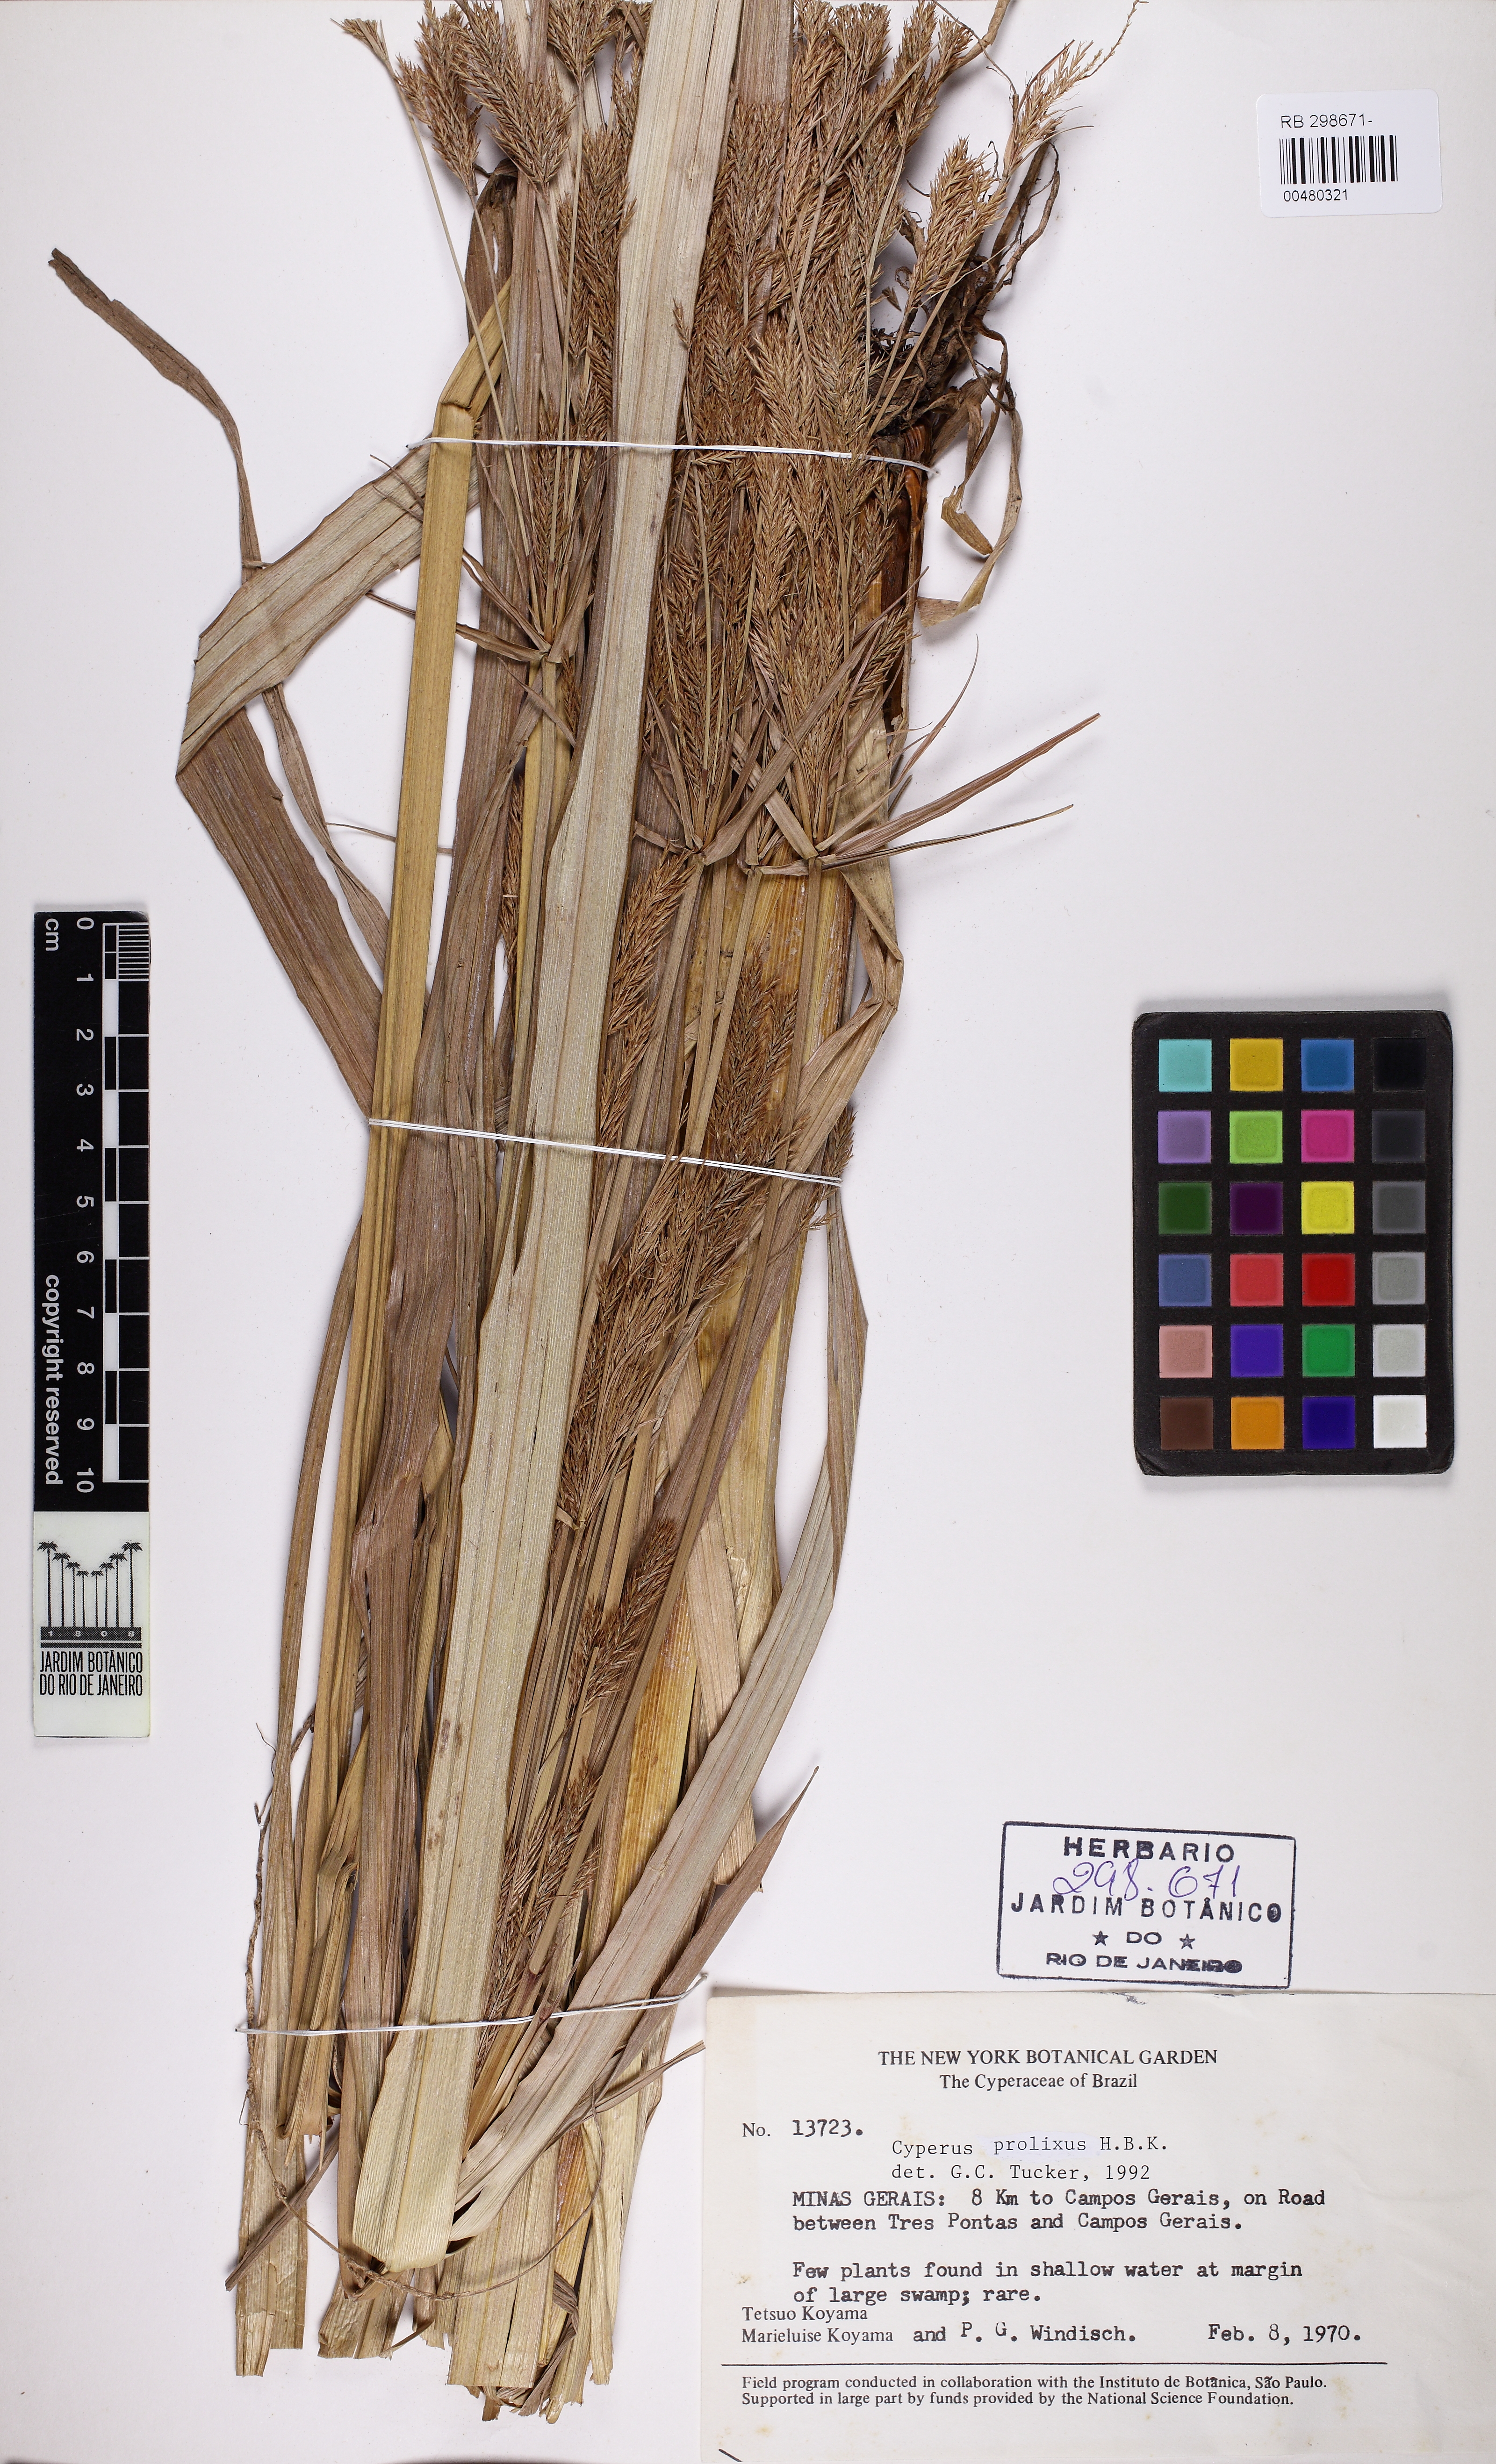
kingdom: Plantae
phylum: Tracheophyta
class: Liliopsida
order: Poales
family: Cyperaceae
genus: Cyperus
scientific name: Cyperus prolixus
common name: Mosquito flatsedge
